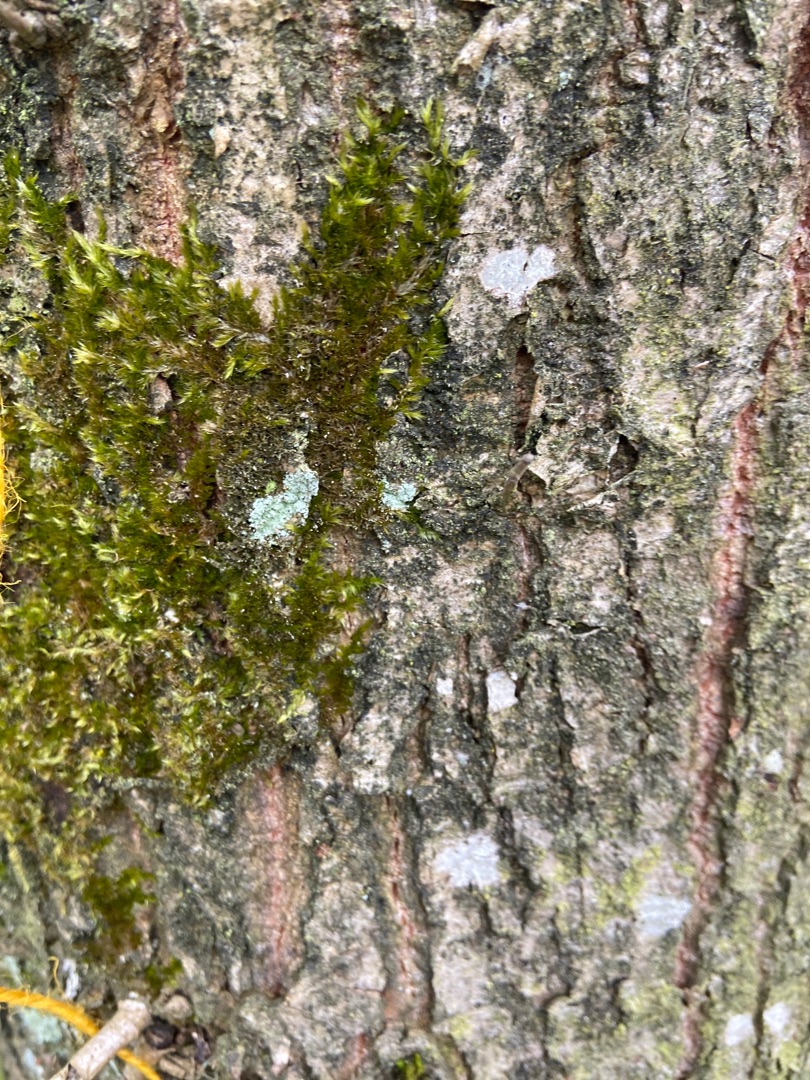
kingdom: Plantae
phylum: Bryophyta
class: Bryopsida
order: Hypnales
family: Hypnaceae
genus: Hypnum
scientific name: Hypnum
